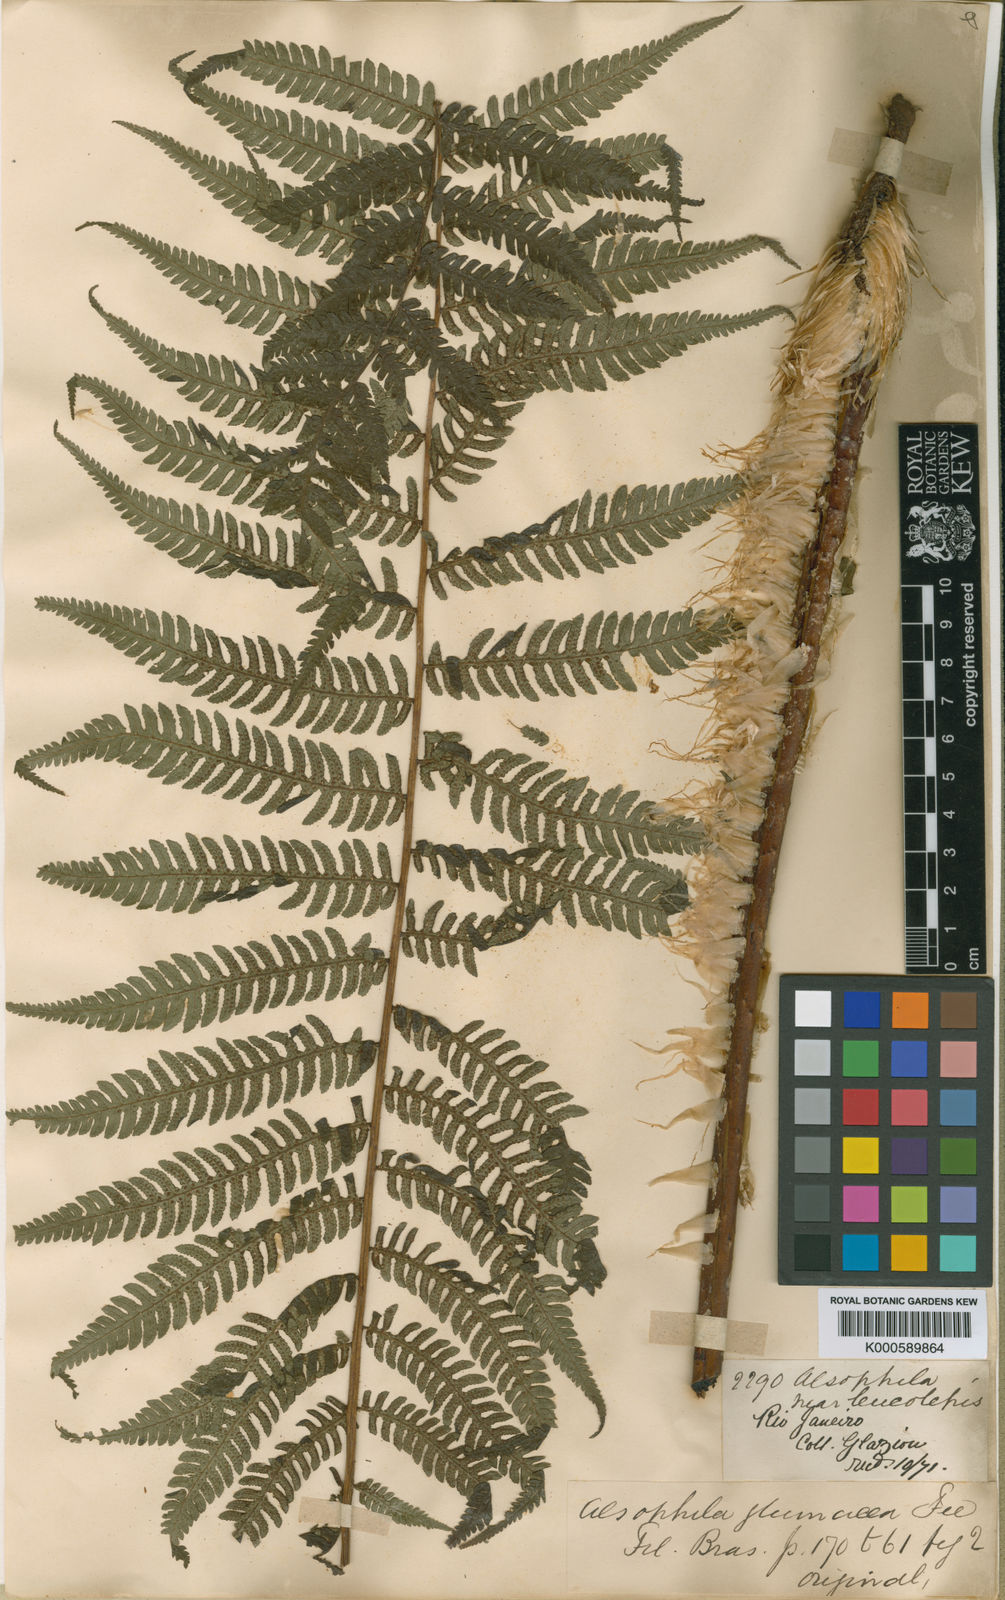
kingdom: Plantae
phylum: Tracheophyta
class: Polypodiopsida
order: Cyatheales
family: Cyatheaceae
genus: Sphaeropteris
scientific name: Sphaeropteris leucolepis
